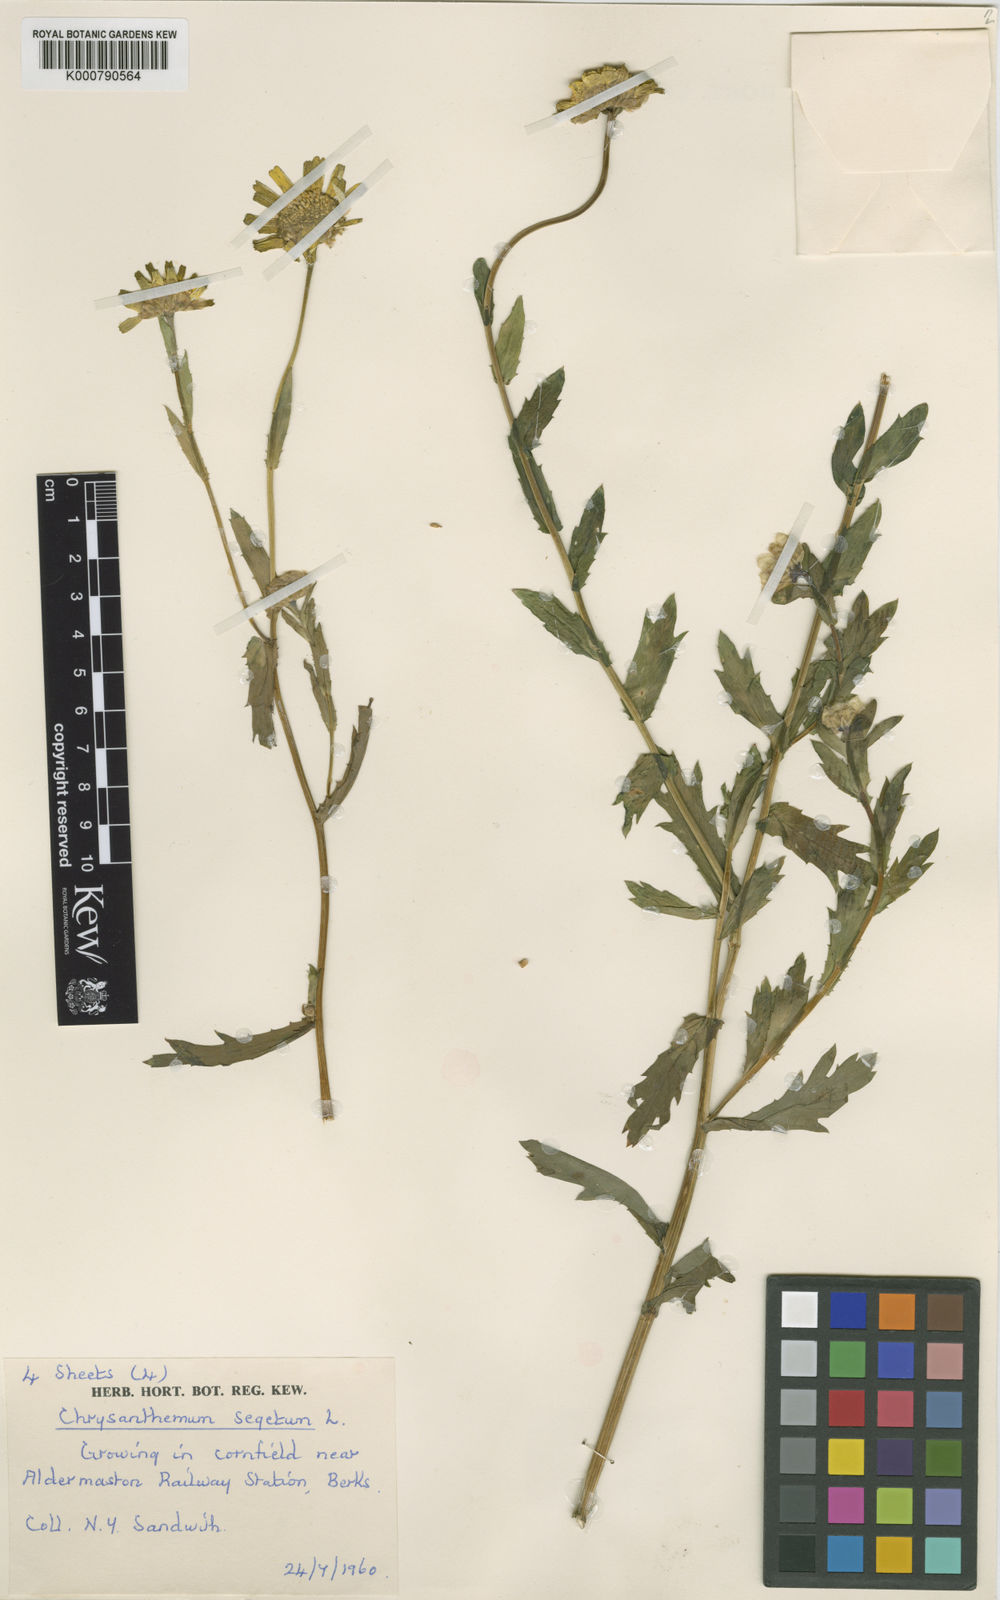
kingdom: Plantae
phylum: Tracheophyta
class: Magnoliopsida
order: Asterales
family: Asteraceae
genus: Glebionis
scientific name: Glebionis
